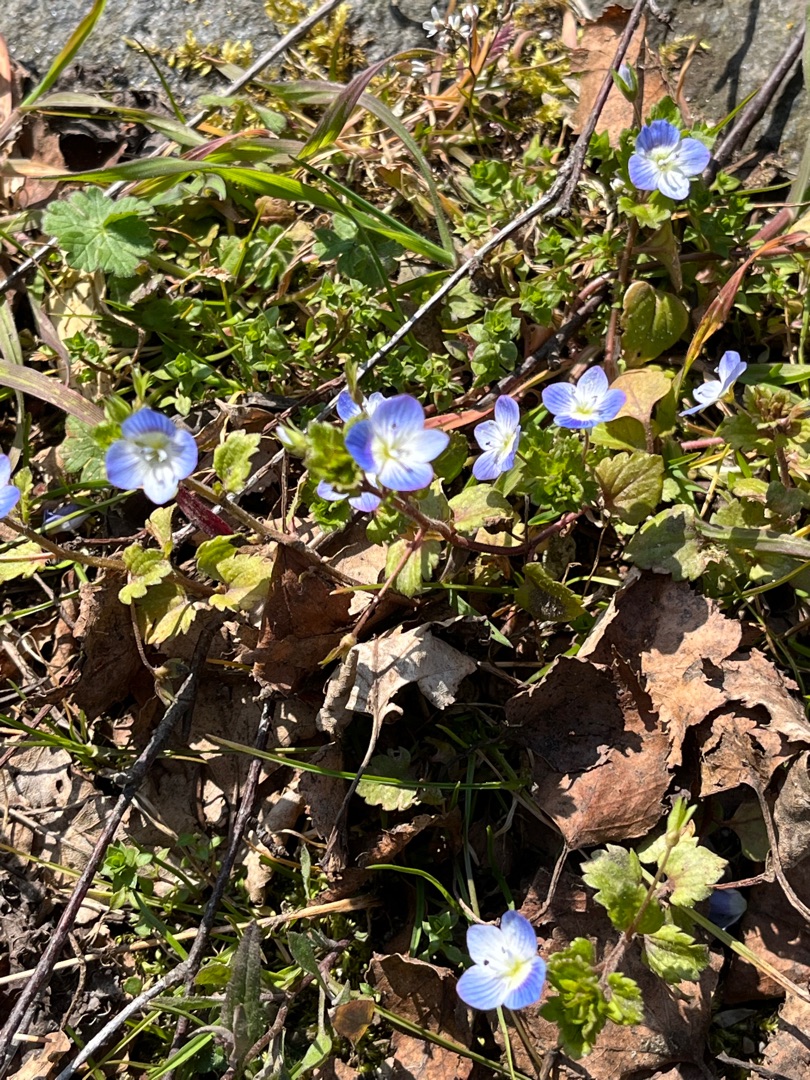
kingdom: Plantae
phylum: Tracheophyta
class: Magnoliopsida
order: Lamiales
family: Plantaginaceae
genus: Veronica
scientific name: Veronica persica
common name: Storkronet ærenpris
